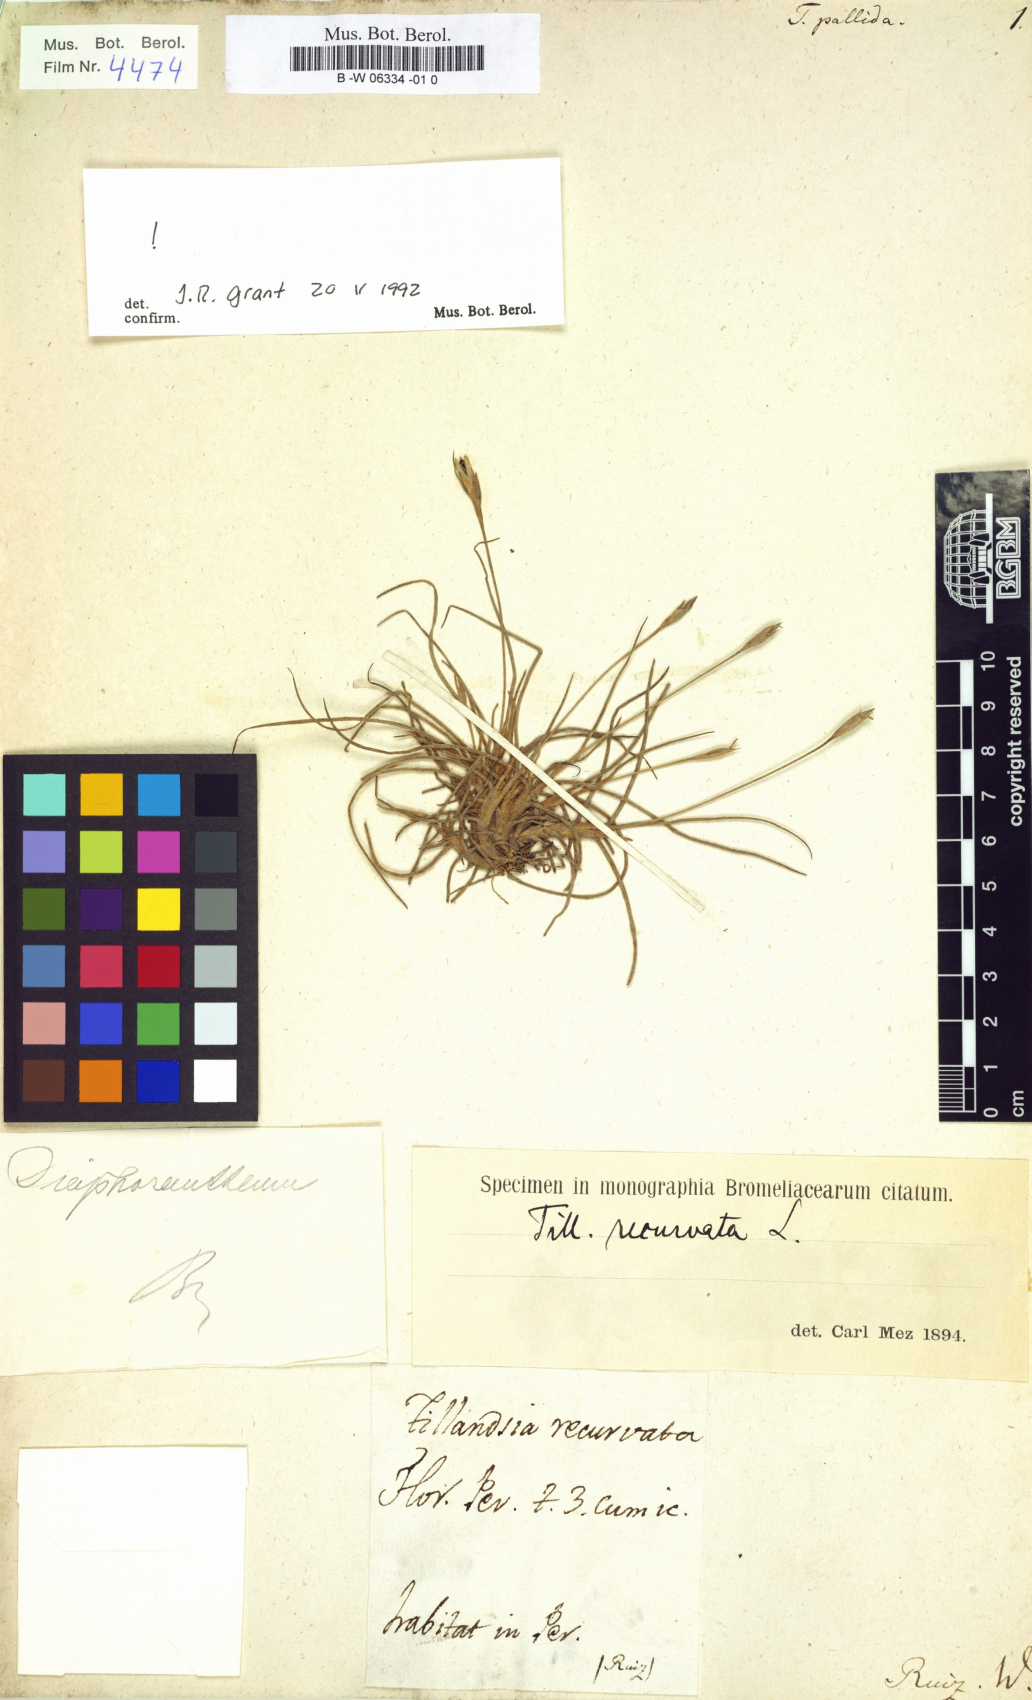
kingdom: Plantae
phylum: Tracheophyta
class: Liliopsida
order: Poales
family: Bromeliaceae
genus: Tillandsia
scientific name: Tillandsia polita
